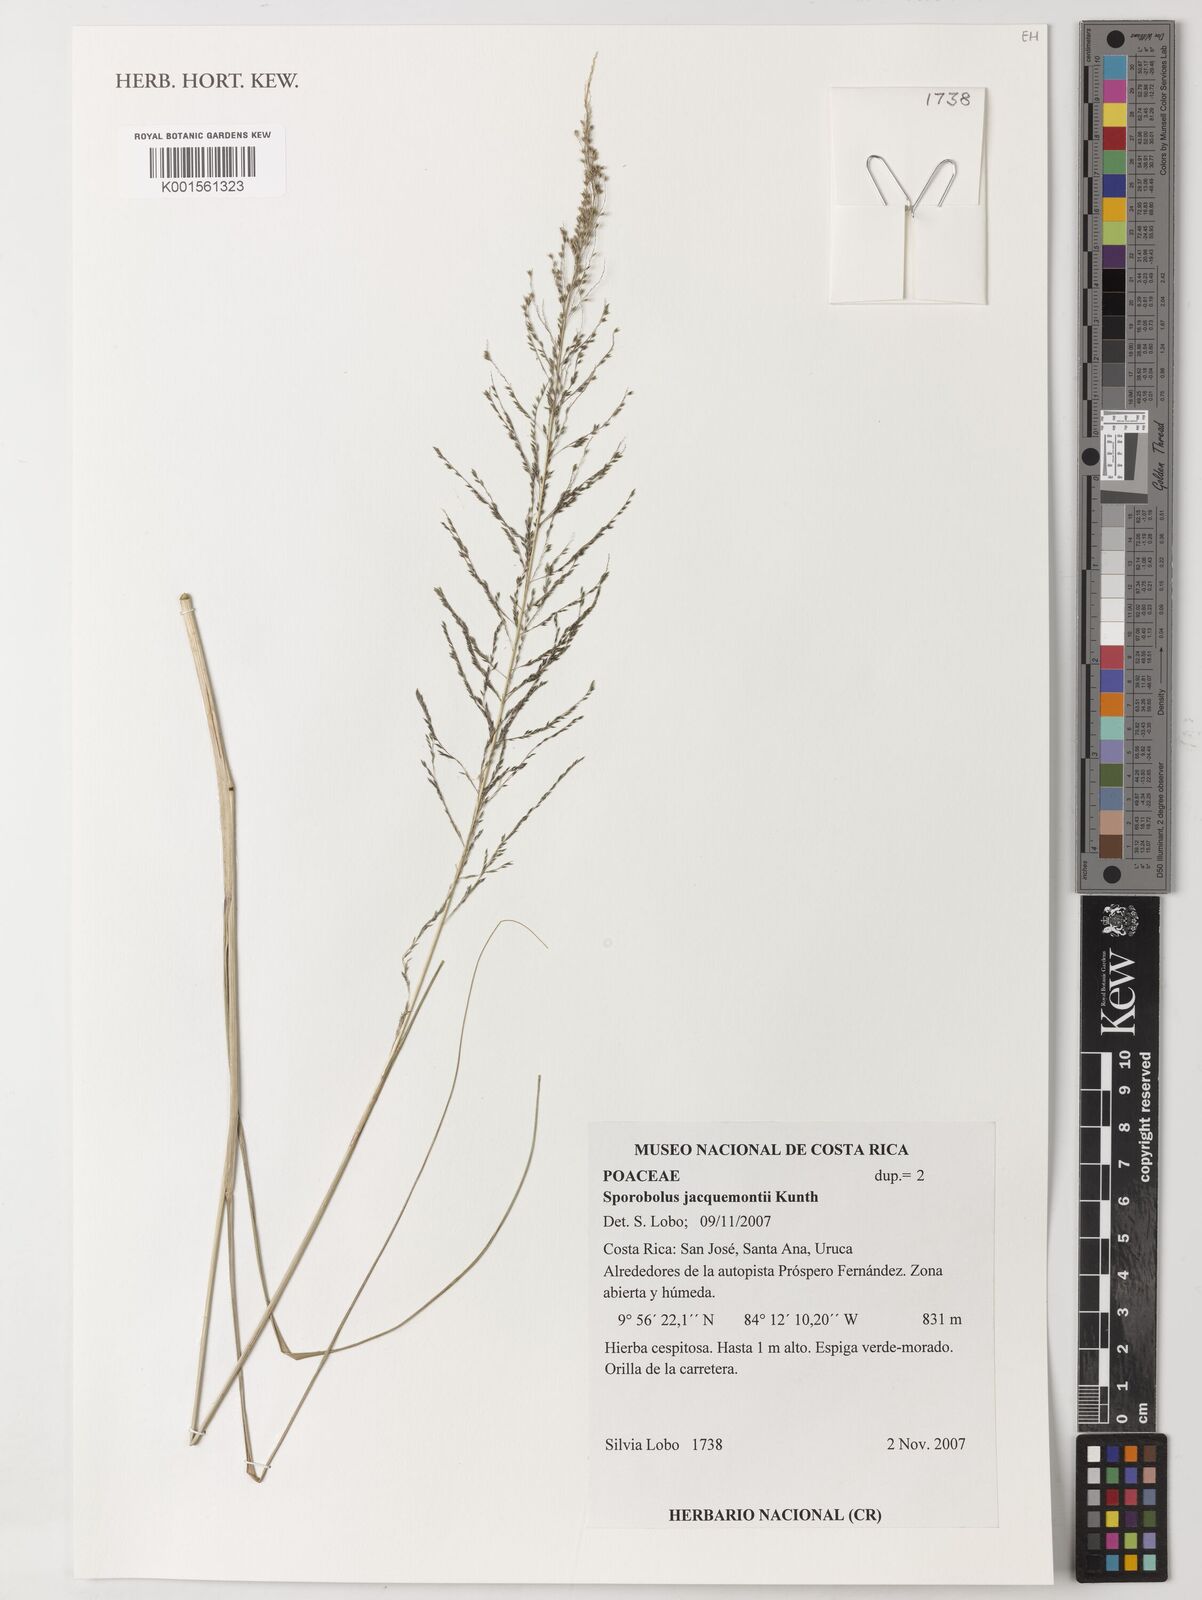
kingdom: Plantae
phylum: Tracheophyta
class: Liliopsida
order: Poales
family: Poaceae
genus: Sporobolus
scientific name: Sporobolus pyramidalis
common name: West indian dropseed
